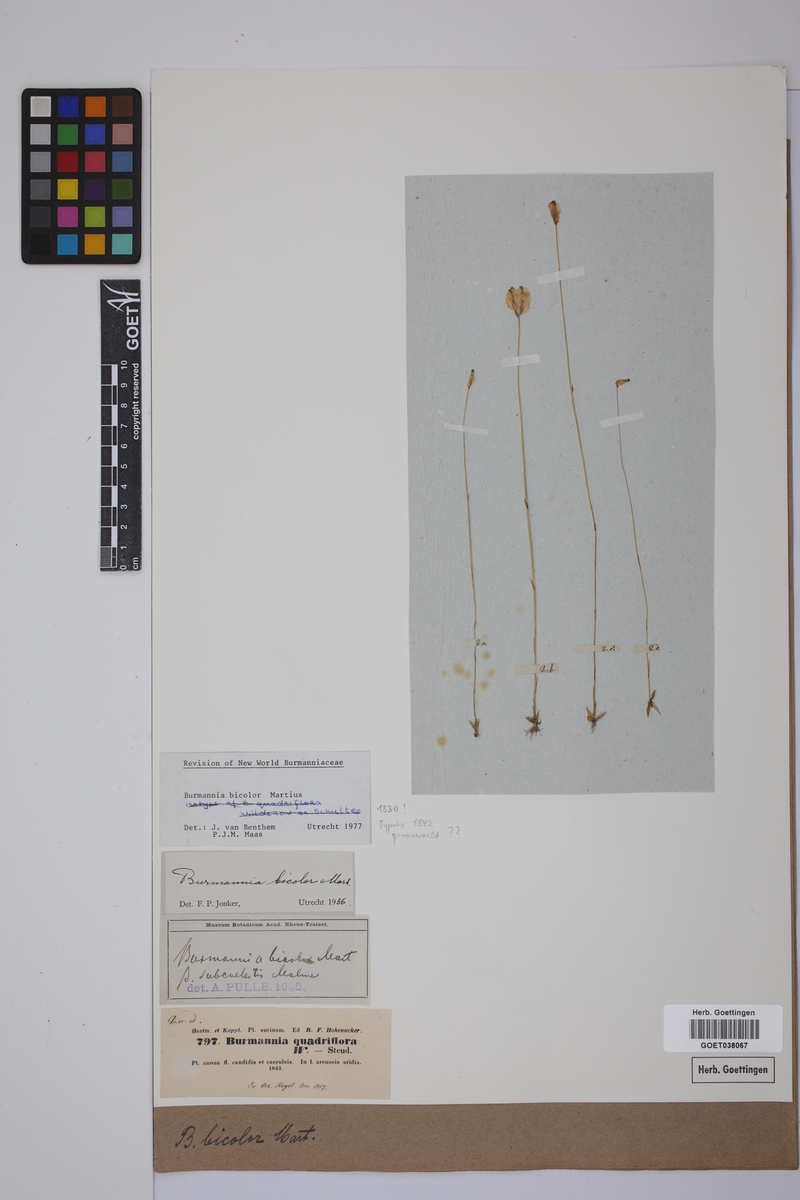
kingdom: Plantae
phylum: Tracheophyta
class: Liliopsida
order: Dioscoreales
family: Burmanniaceae
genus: Burmannia
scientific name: Burmannia bicolor
